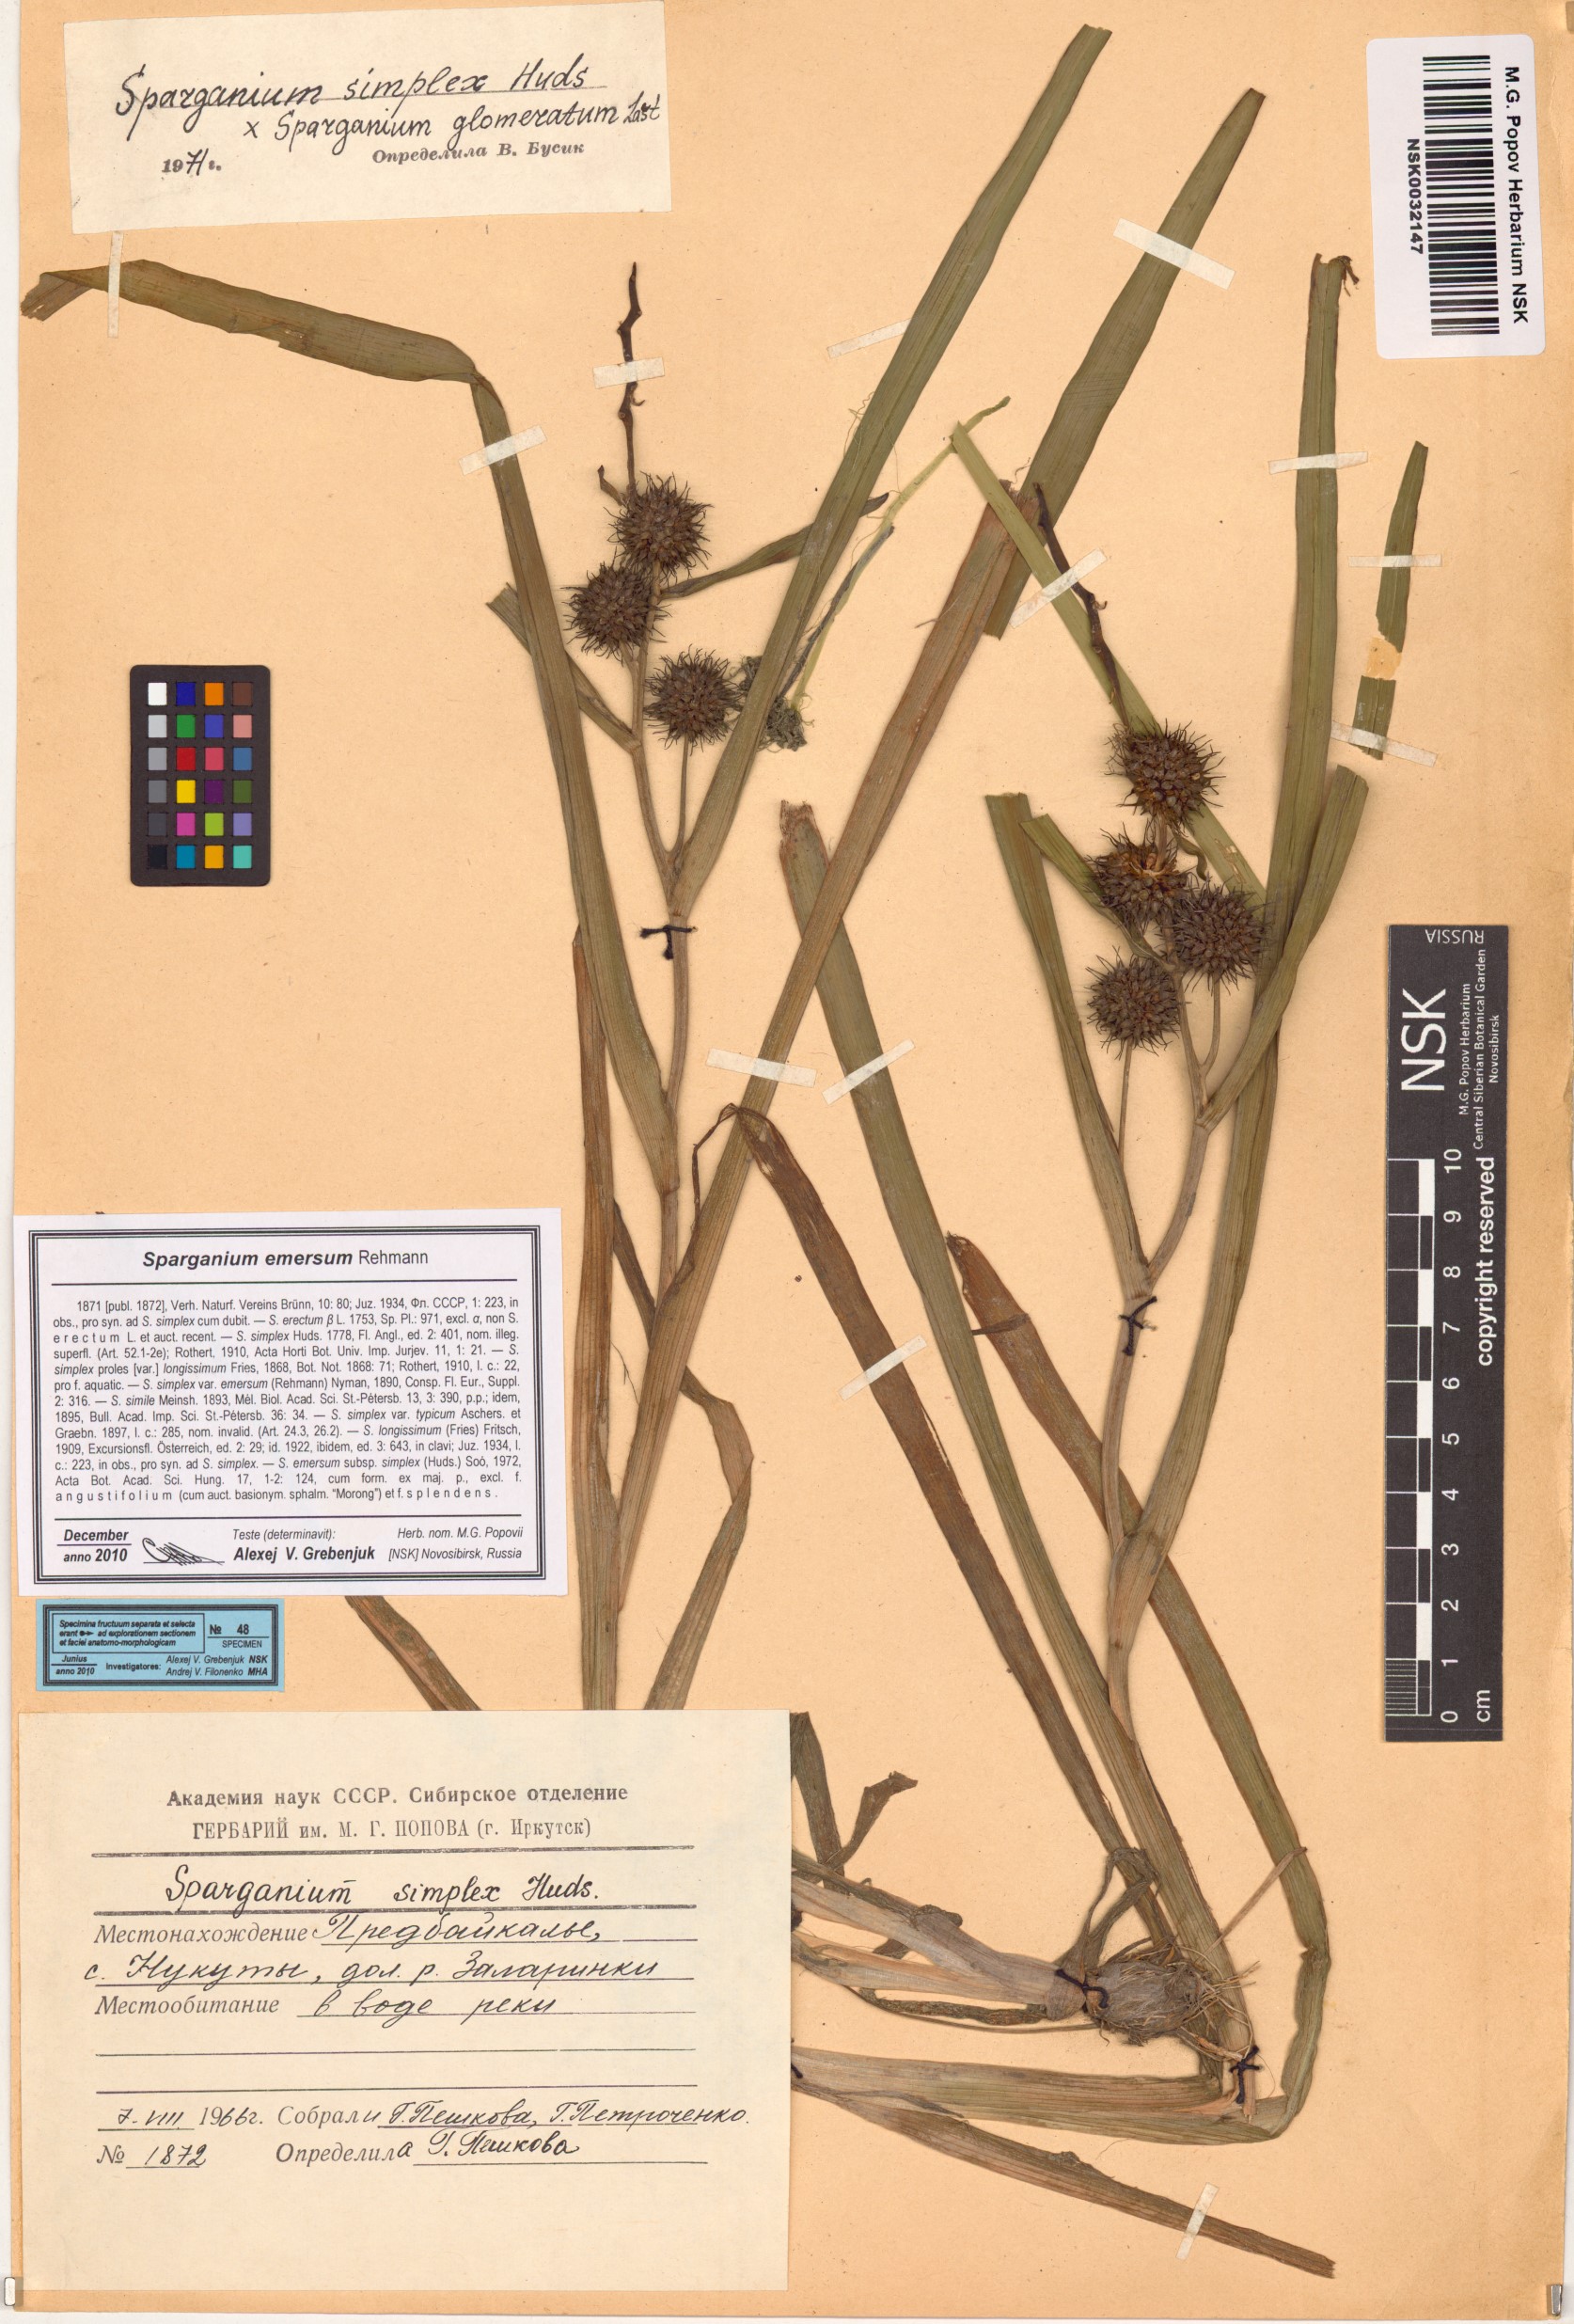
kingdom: Plantae
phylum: Tracheophyta
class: Liliopsida
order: Poales
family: Typhaceae
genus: Sparganium
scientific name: Sparganium emersum
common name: Unbranched bur-reed
